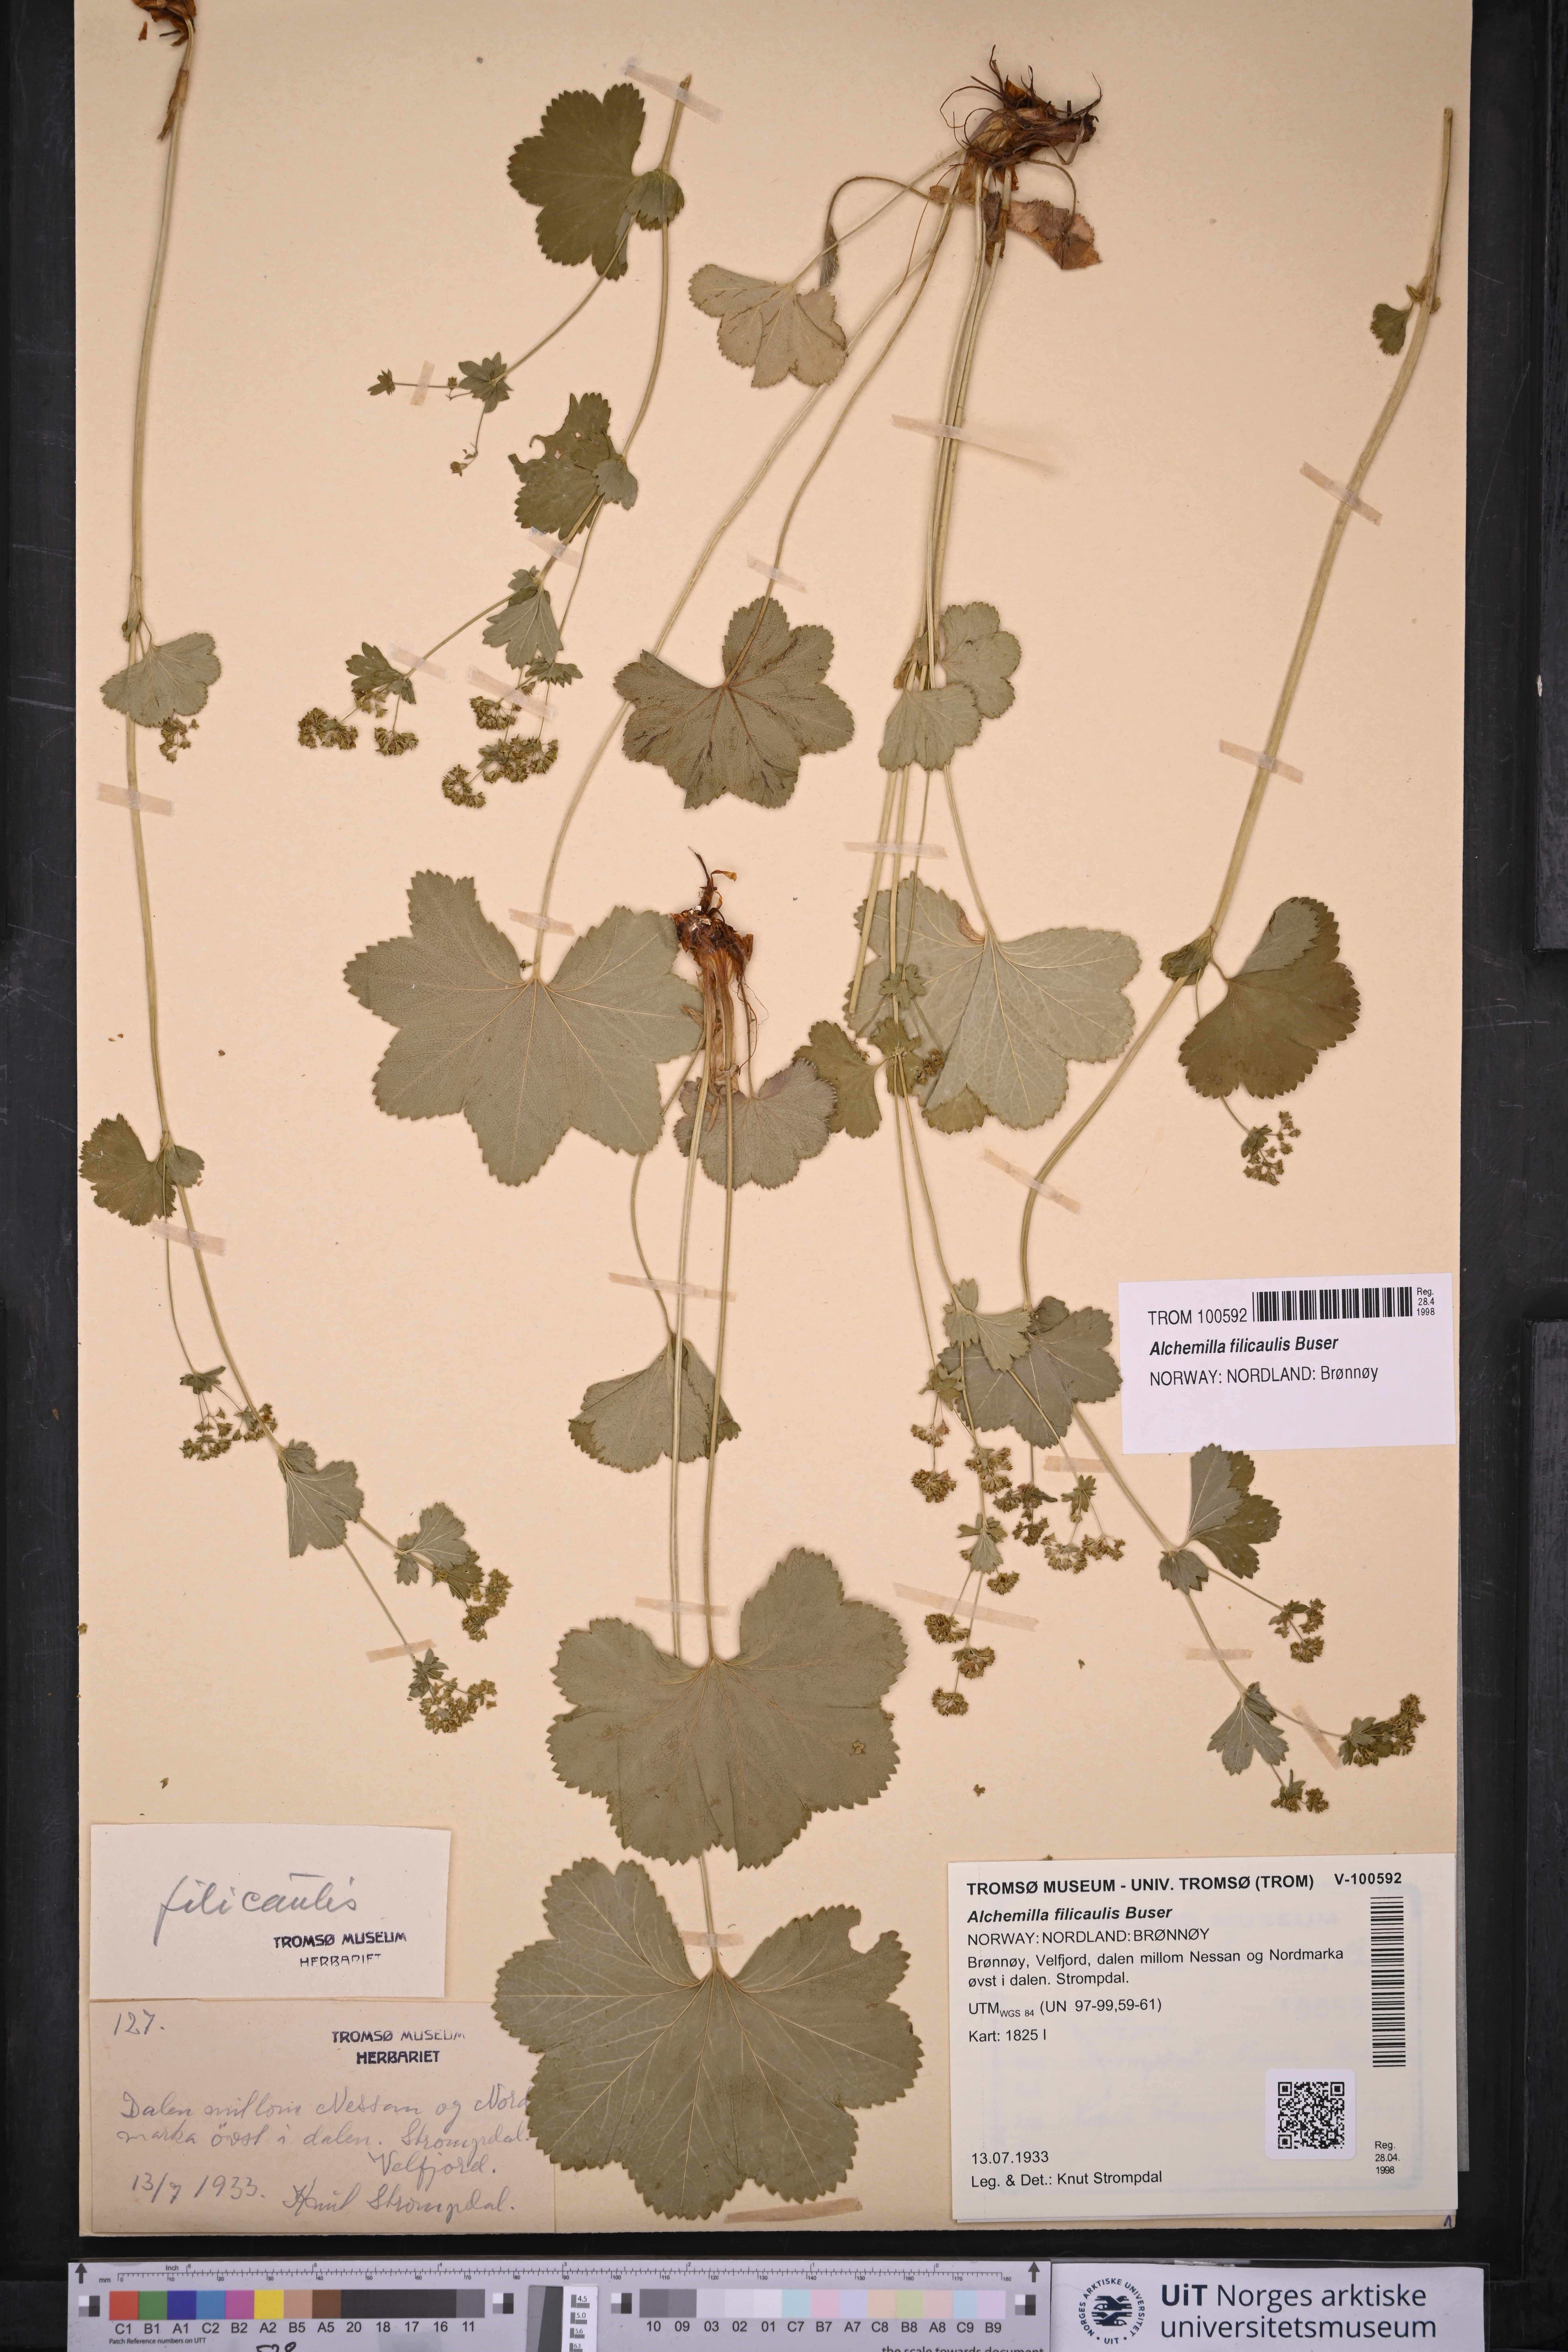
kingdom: Plantae
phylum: Tracheophyta
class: Magnoliopsida
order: Rosales
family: Rosaceae
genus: Alchemilla
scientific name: Alchemilla filicaulis
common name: Hairy lady's-mantle
